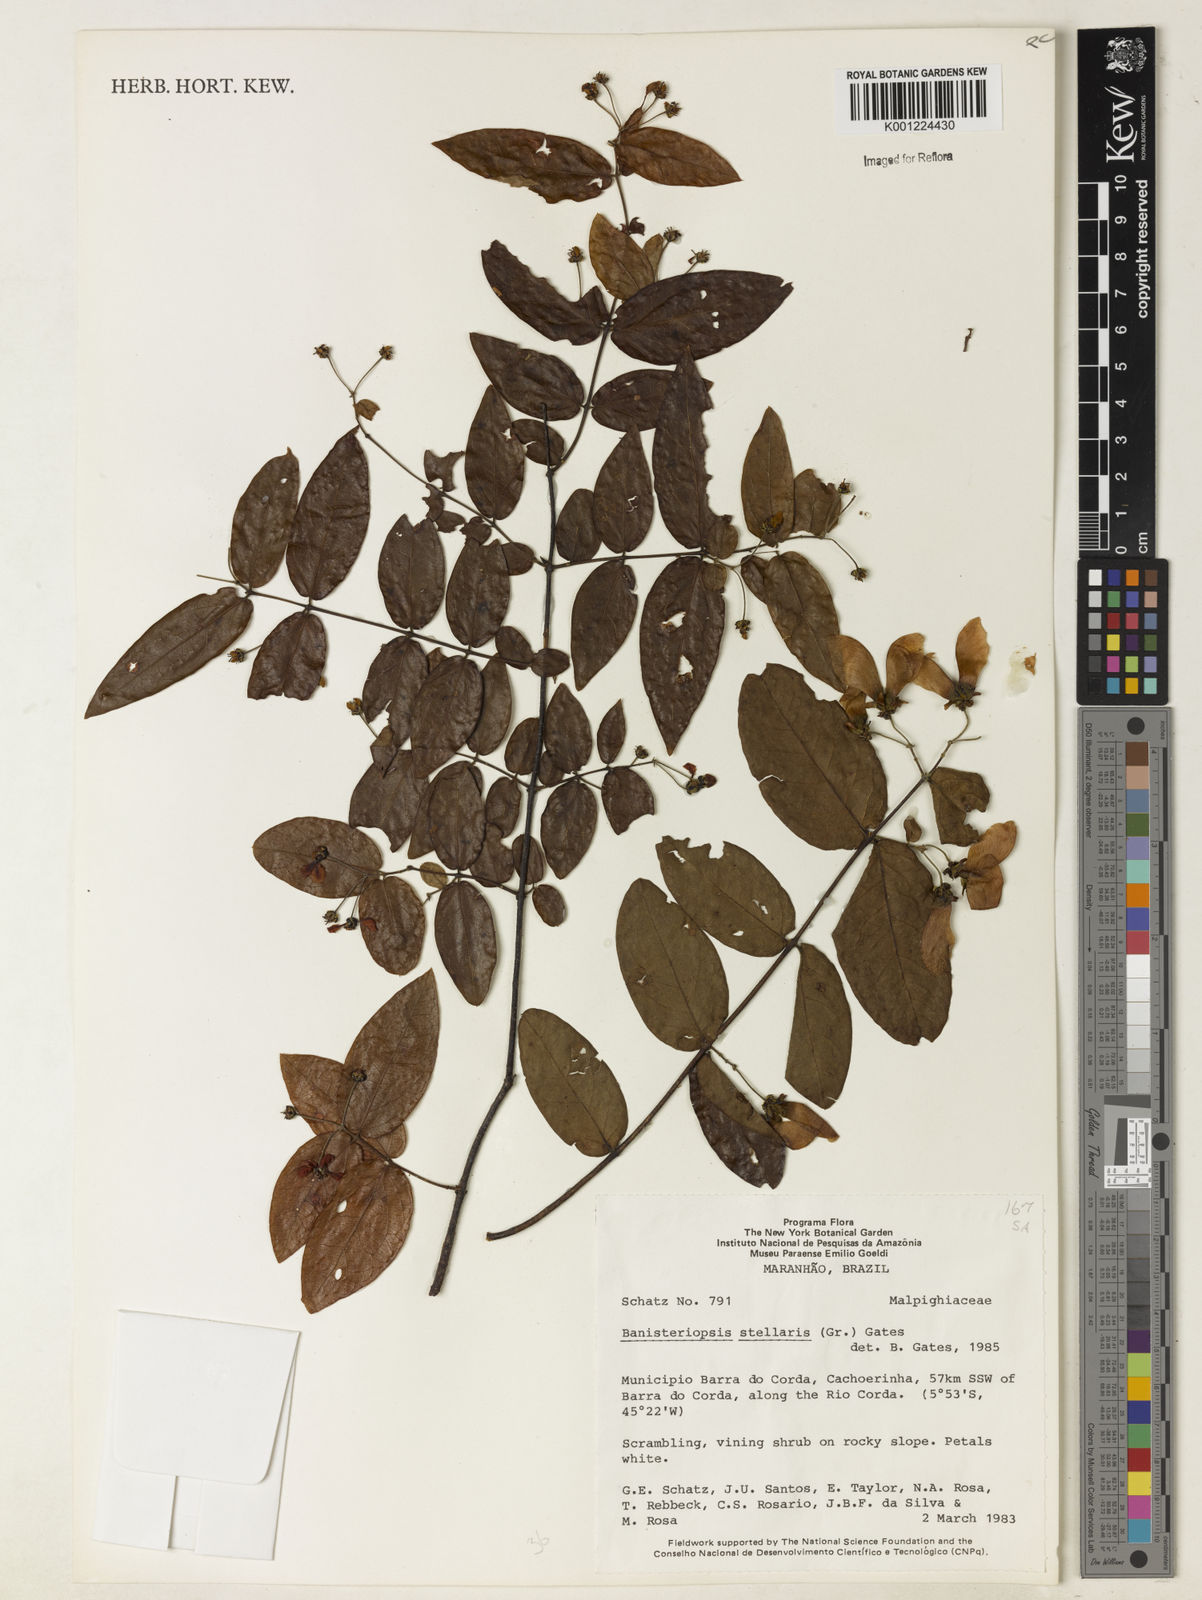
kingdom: Plantae
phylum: Tracheophyta
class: Magnoliopsida
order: Malpighiales
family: Malpighiaceae
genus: Banisteriopsis
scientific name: Banisteriopsis stellaris
